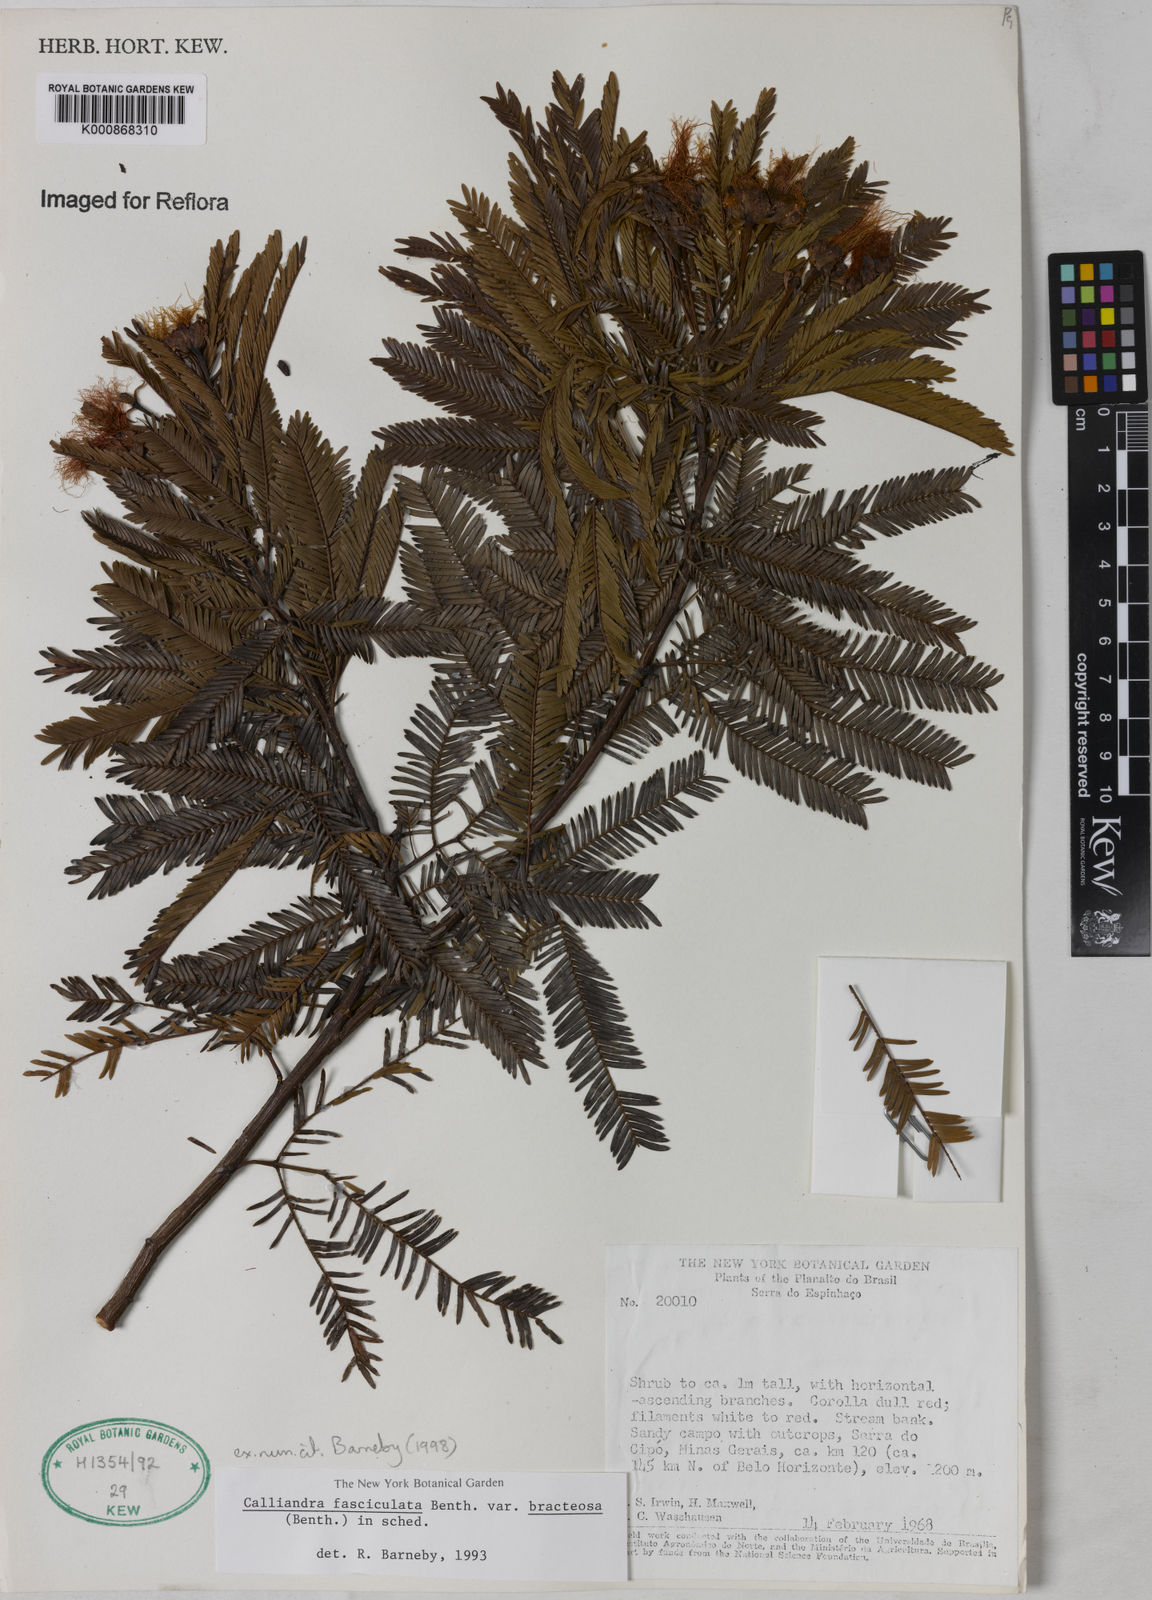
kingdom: Plantae
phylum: Tracheophyta
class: Magnoliopsida
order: Fabales
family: Fabaceae
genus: Calliandra
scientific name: Calliandra fasciculata
